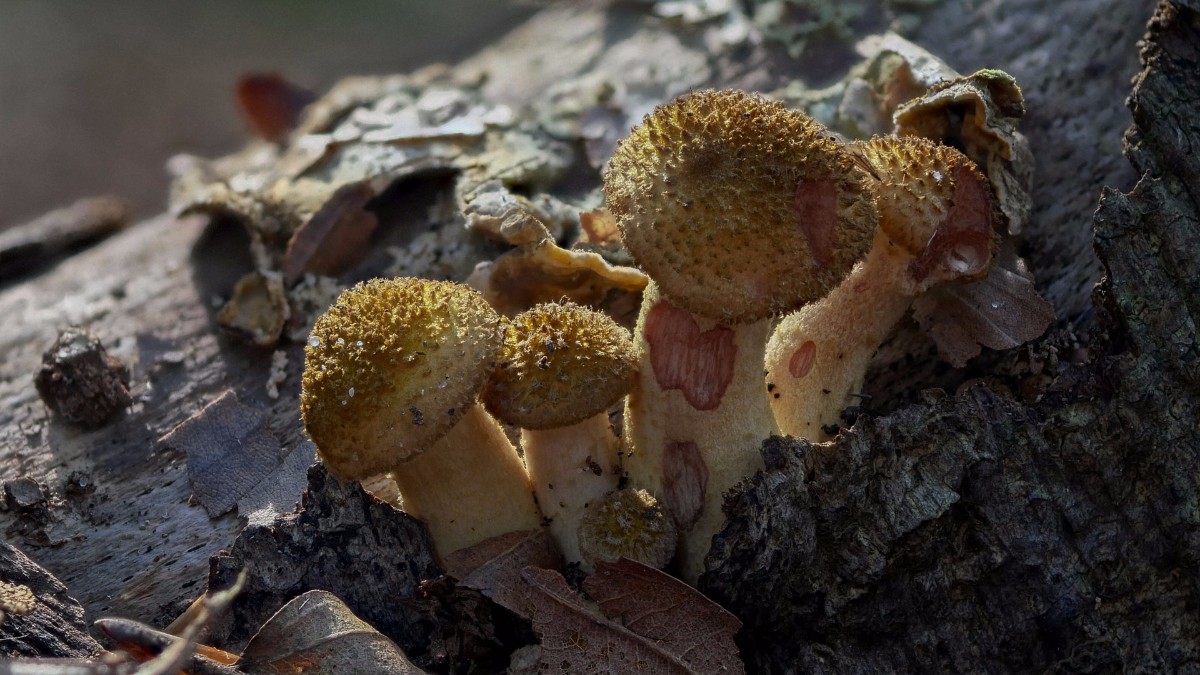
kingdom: Fungi
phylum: Basidiomycota
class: Agaricomycetes
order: Agaricales
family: Physalacriaceae
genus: Armillaria
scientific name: Armillaria lutea
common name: køllestokket honningsvamp
